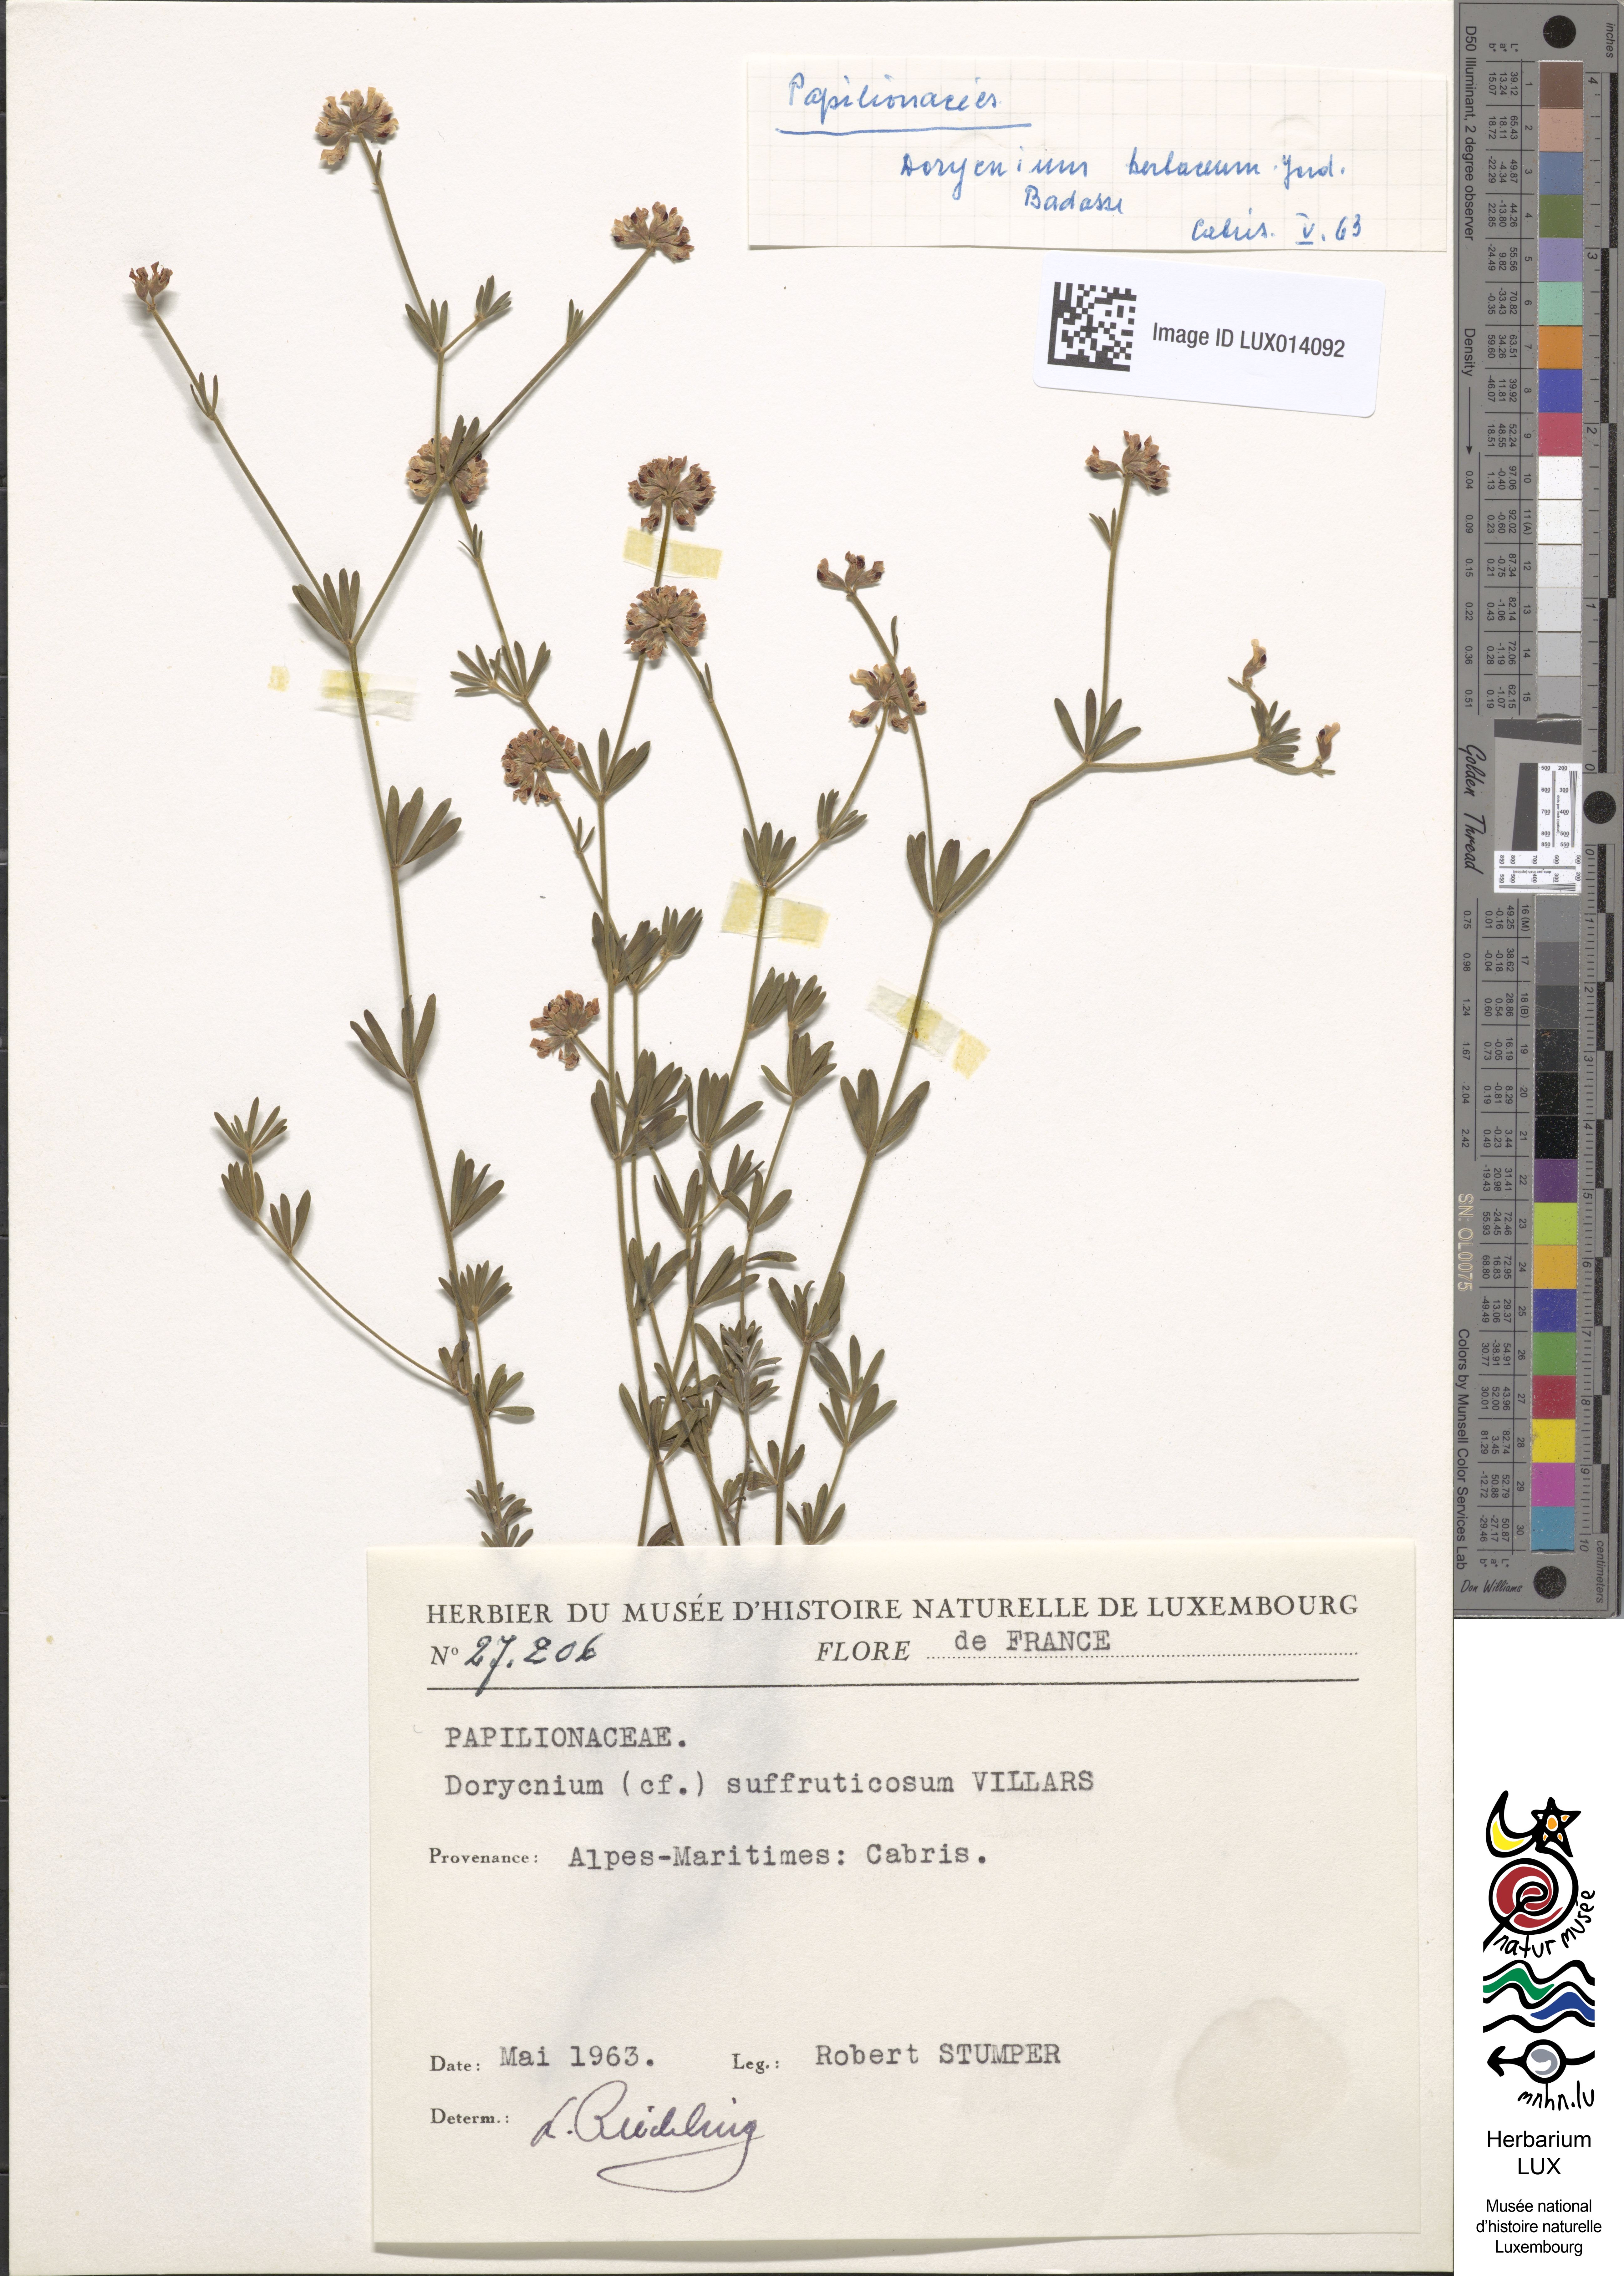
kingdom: Plantae
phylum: Tracheophyta
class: Magnoliopsida
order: Fabales
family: Fabaceae
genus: Lotus
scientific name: Lotus dorycnium
